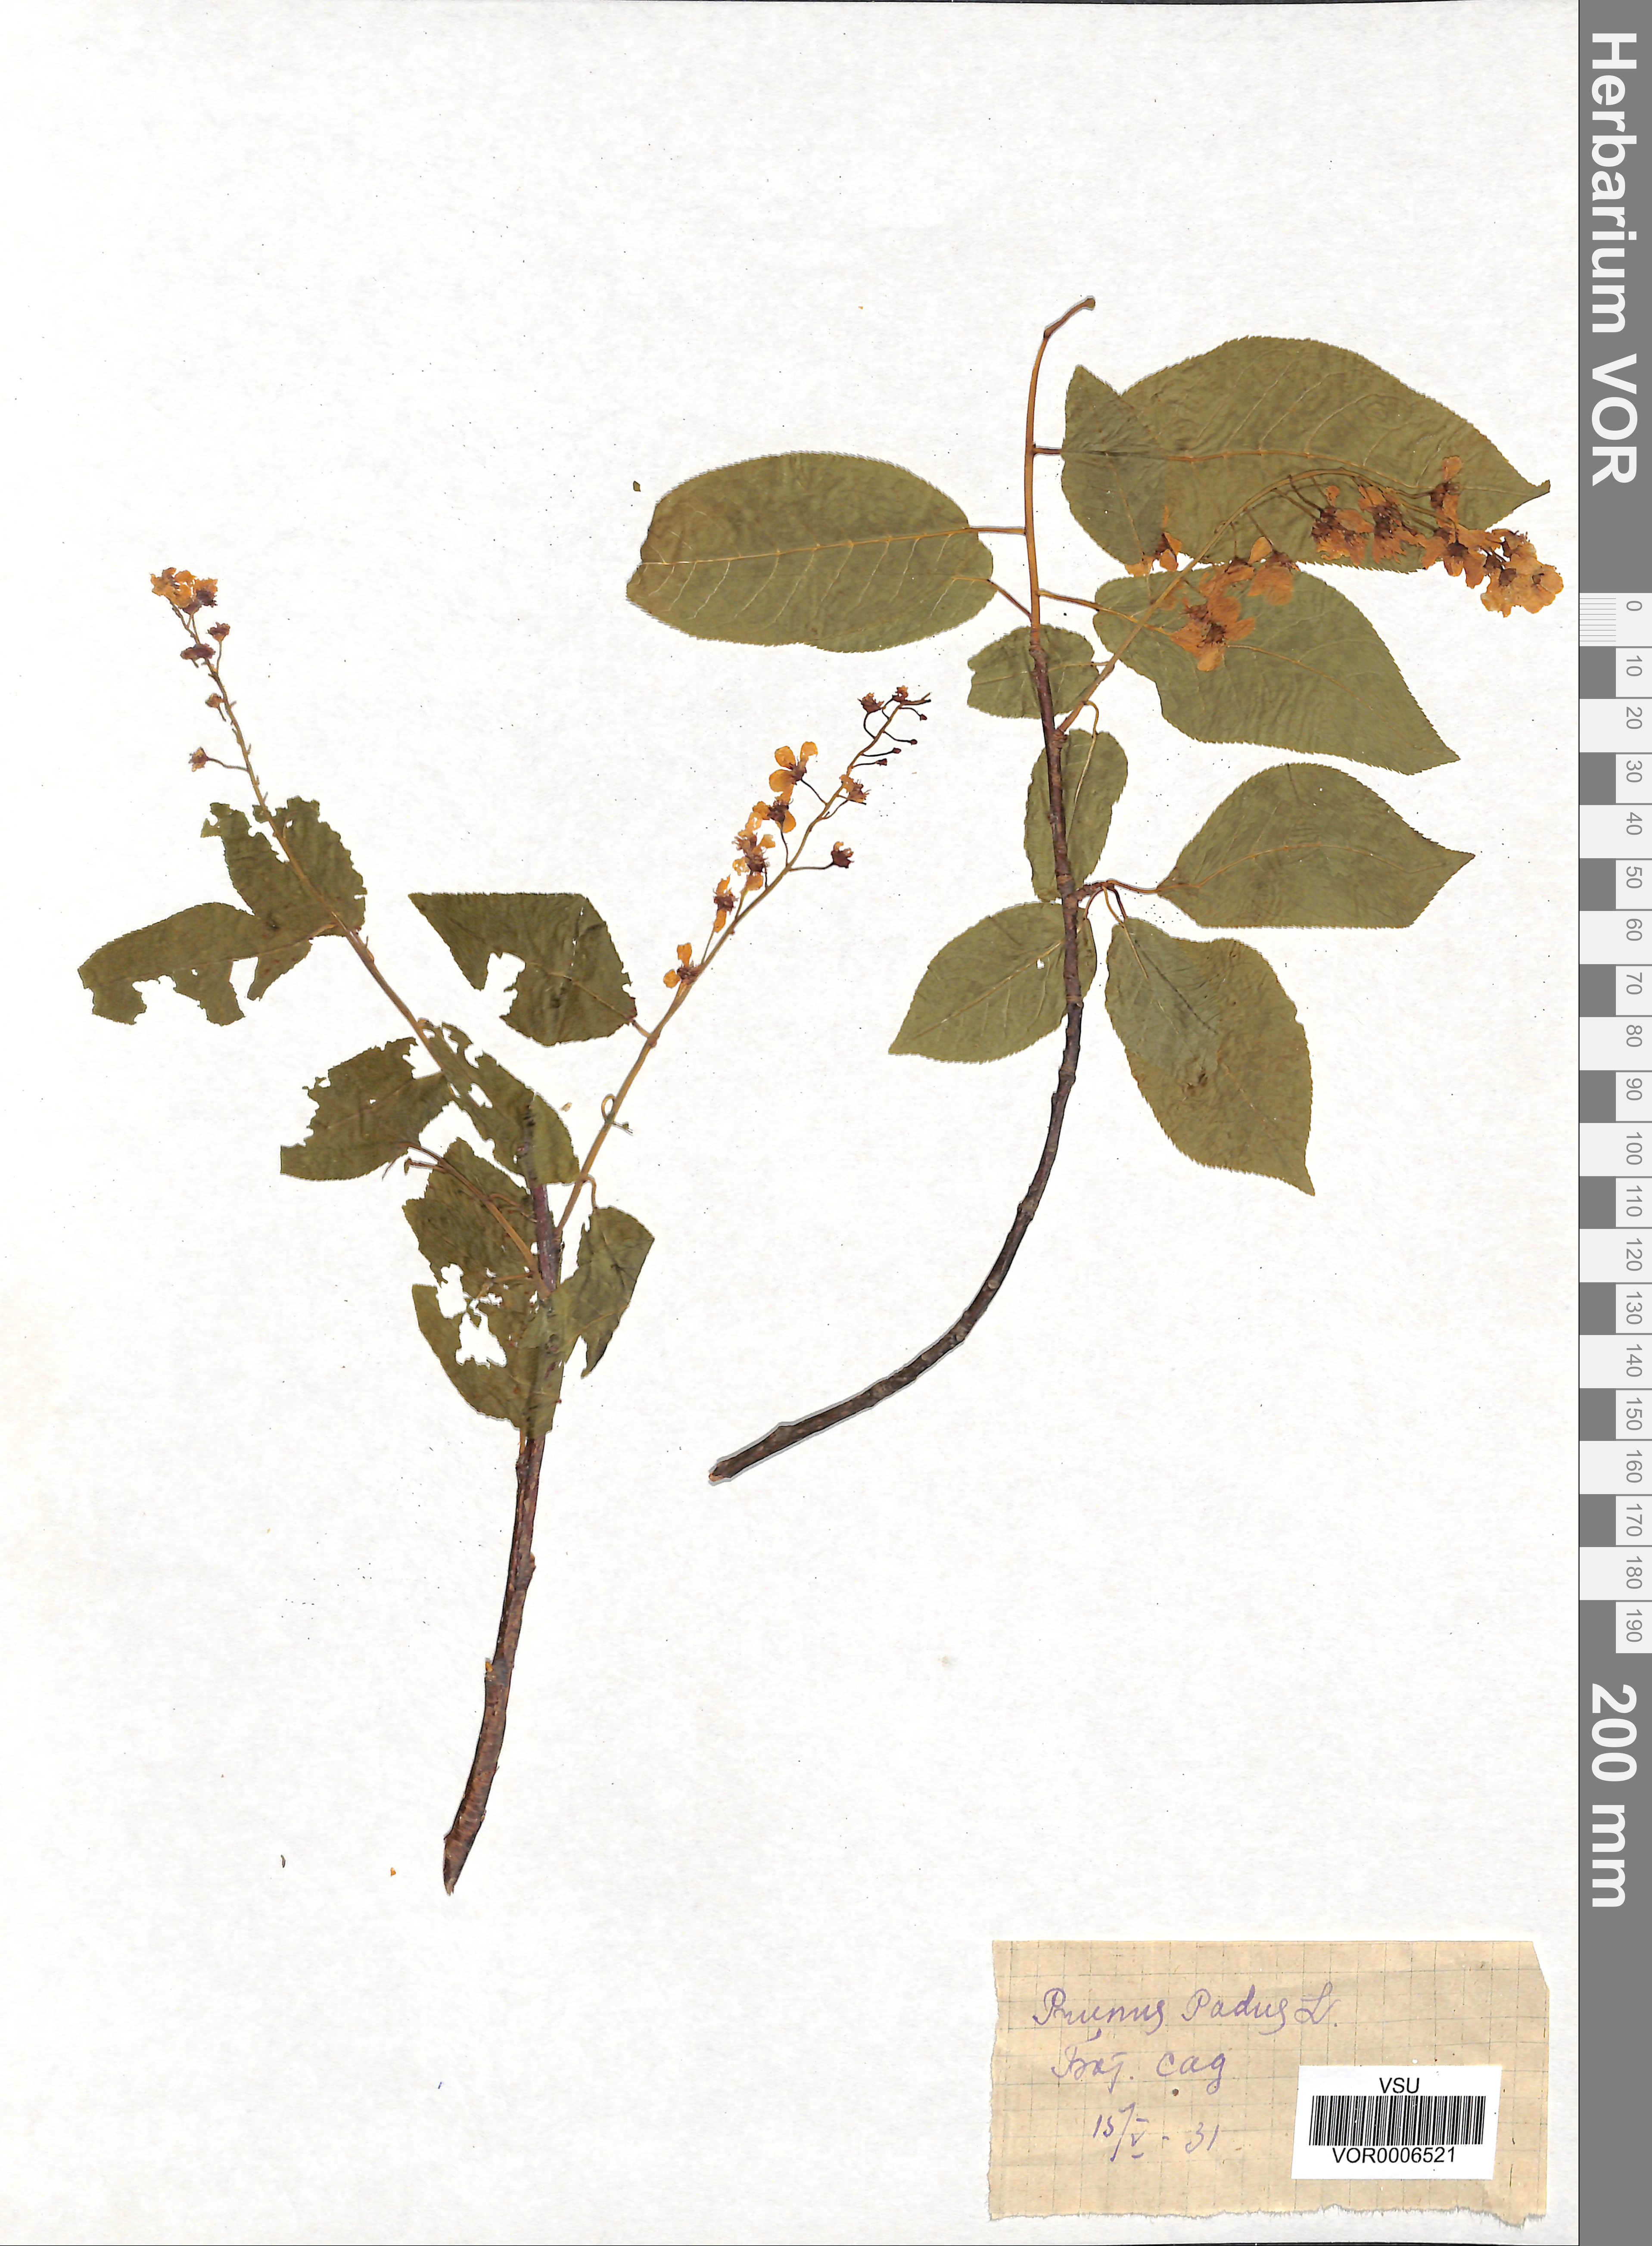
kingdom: Plantae
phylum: Tracheophyta
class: Magnoliopsida
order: Rosales
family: Rosaceae
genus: Prunus
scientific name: Prunus padus
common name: Bird cherry
